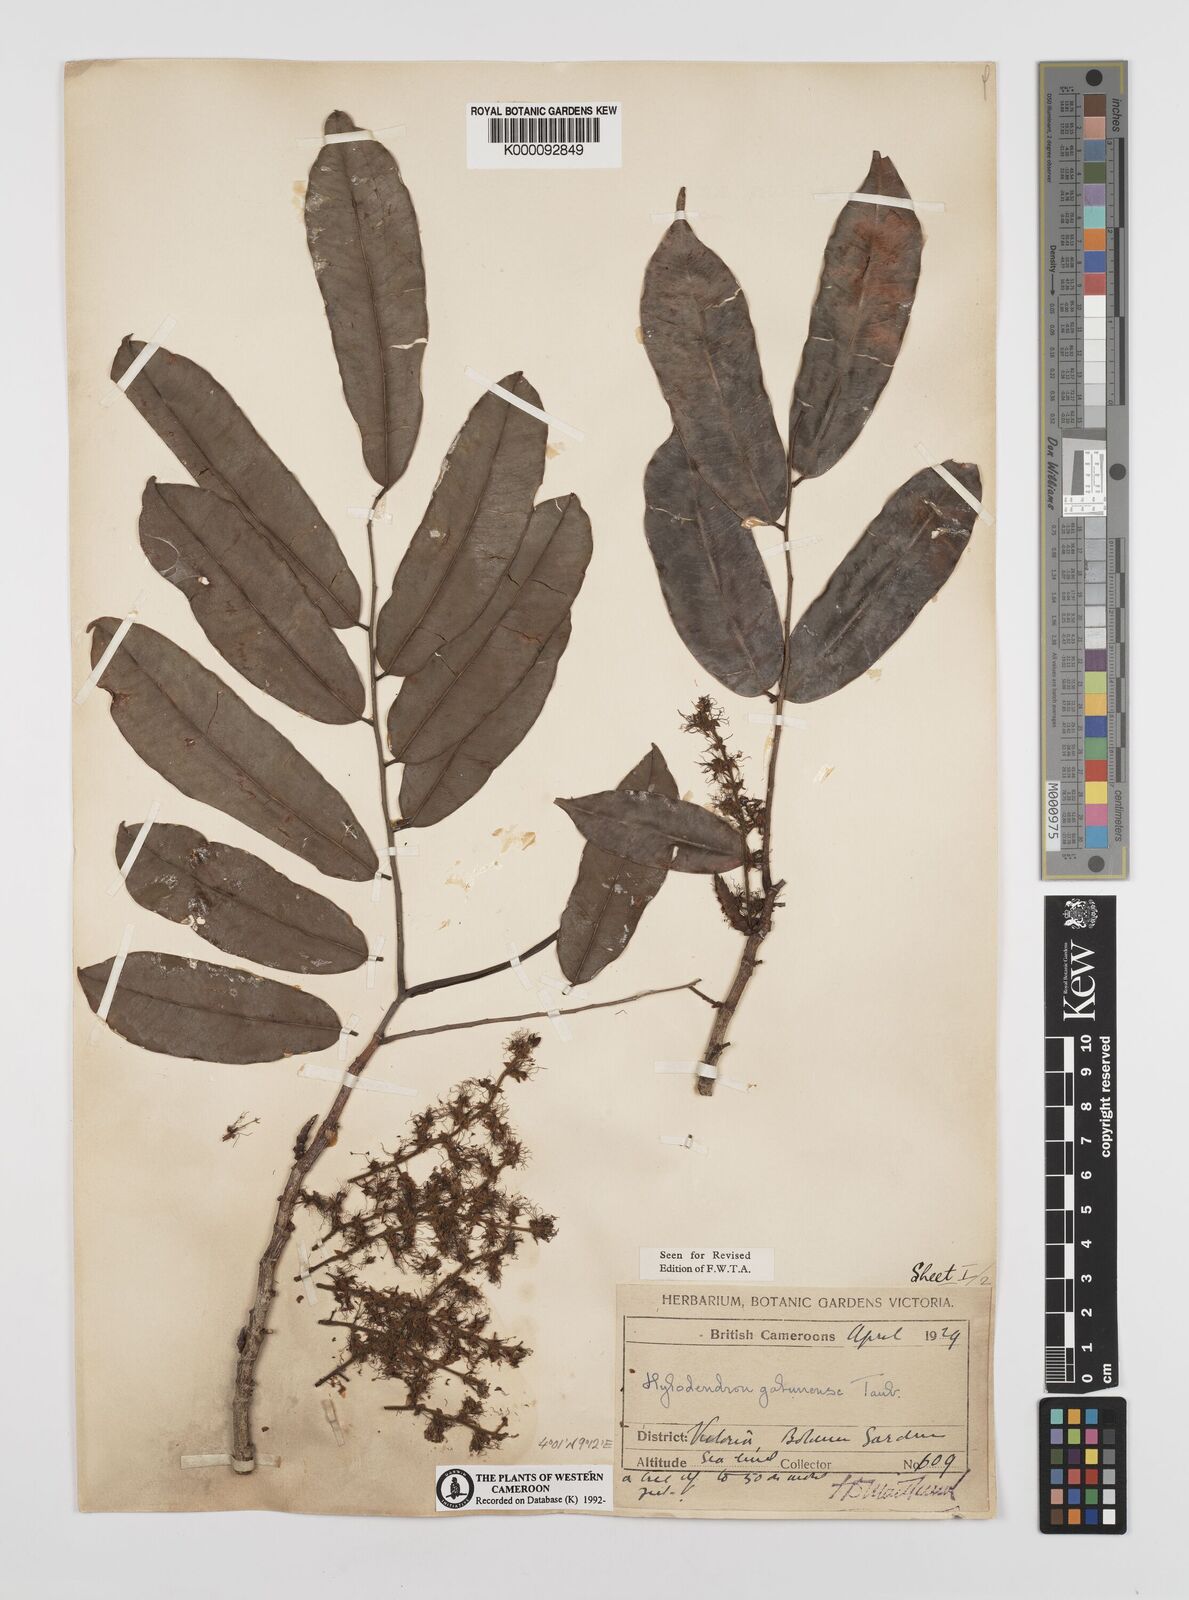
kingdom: Plantae
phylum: Tracheophyta
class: Magnoliopsida
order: Fabales
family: Fabaceae
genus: Hylodendron
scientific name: Hylodendron gabunense
